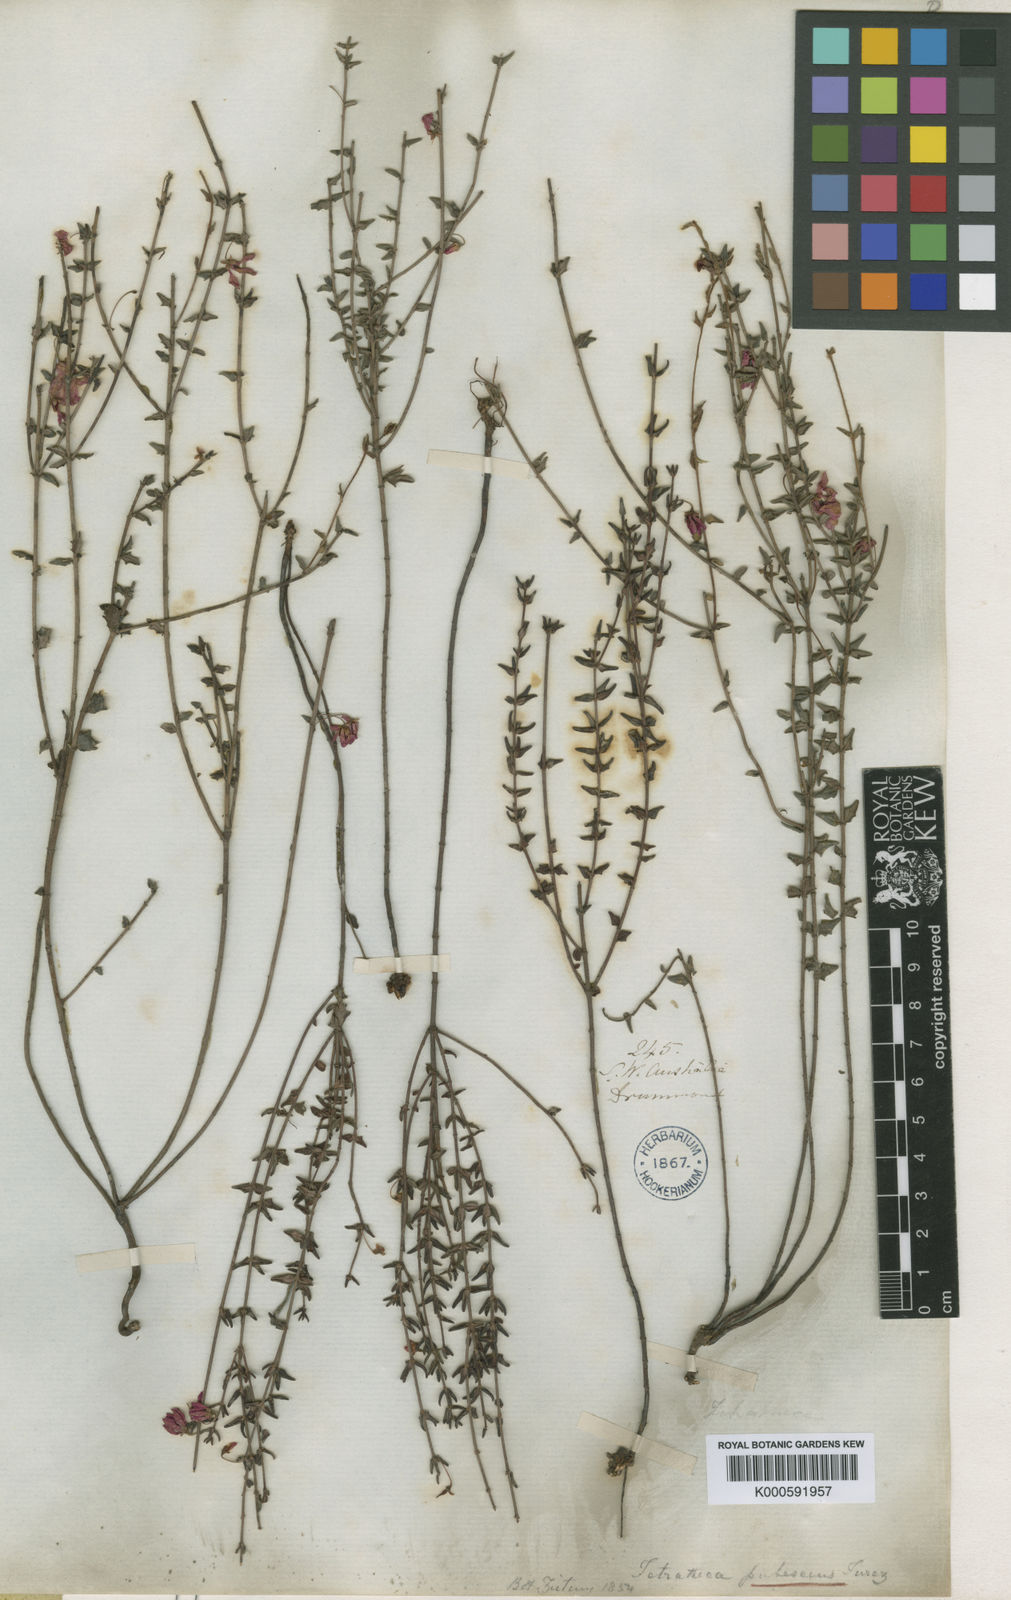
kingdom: Plantae
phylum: Tracheophyta
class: Magnoliopsida
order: Oxalidales
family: Elaeocarpaceae
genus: Tetratheca
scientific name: Tetratheca pubescens
